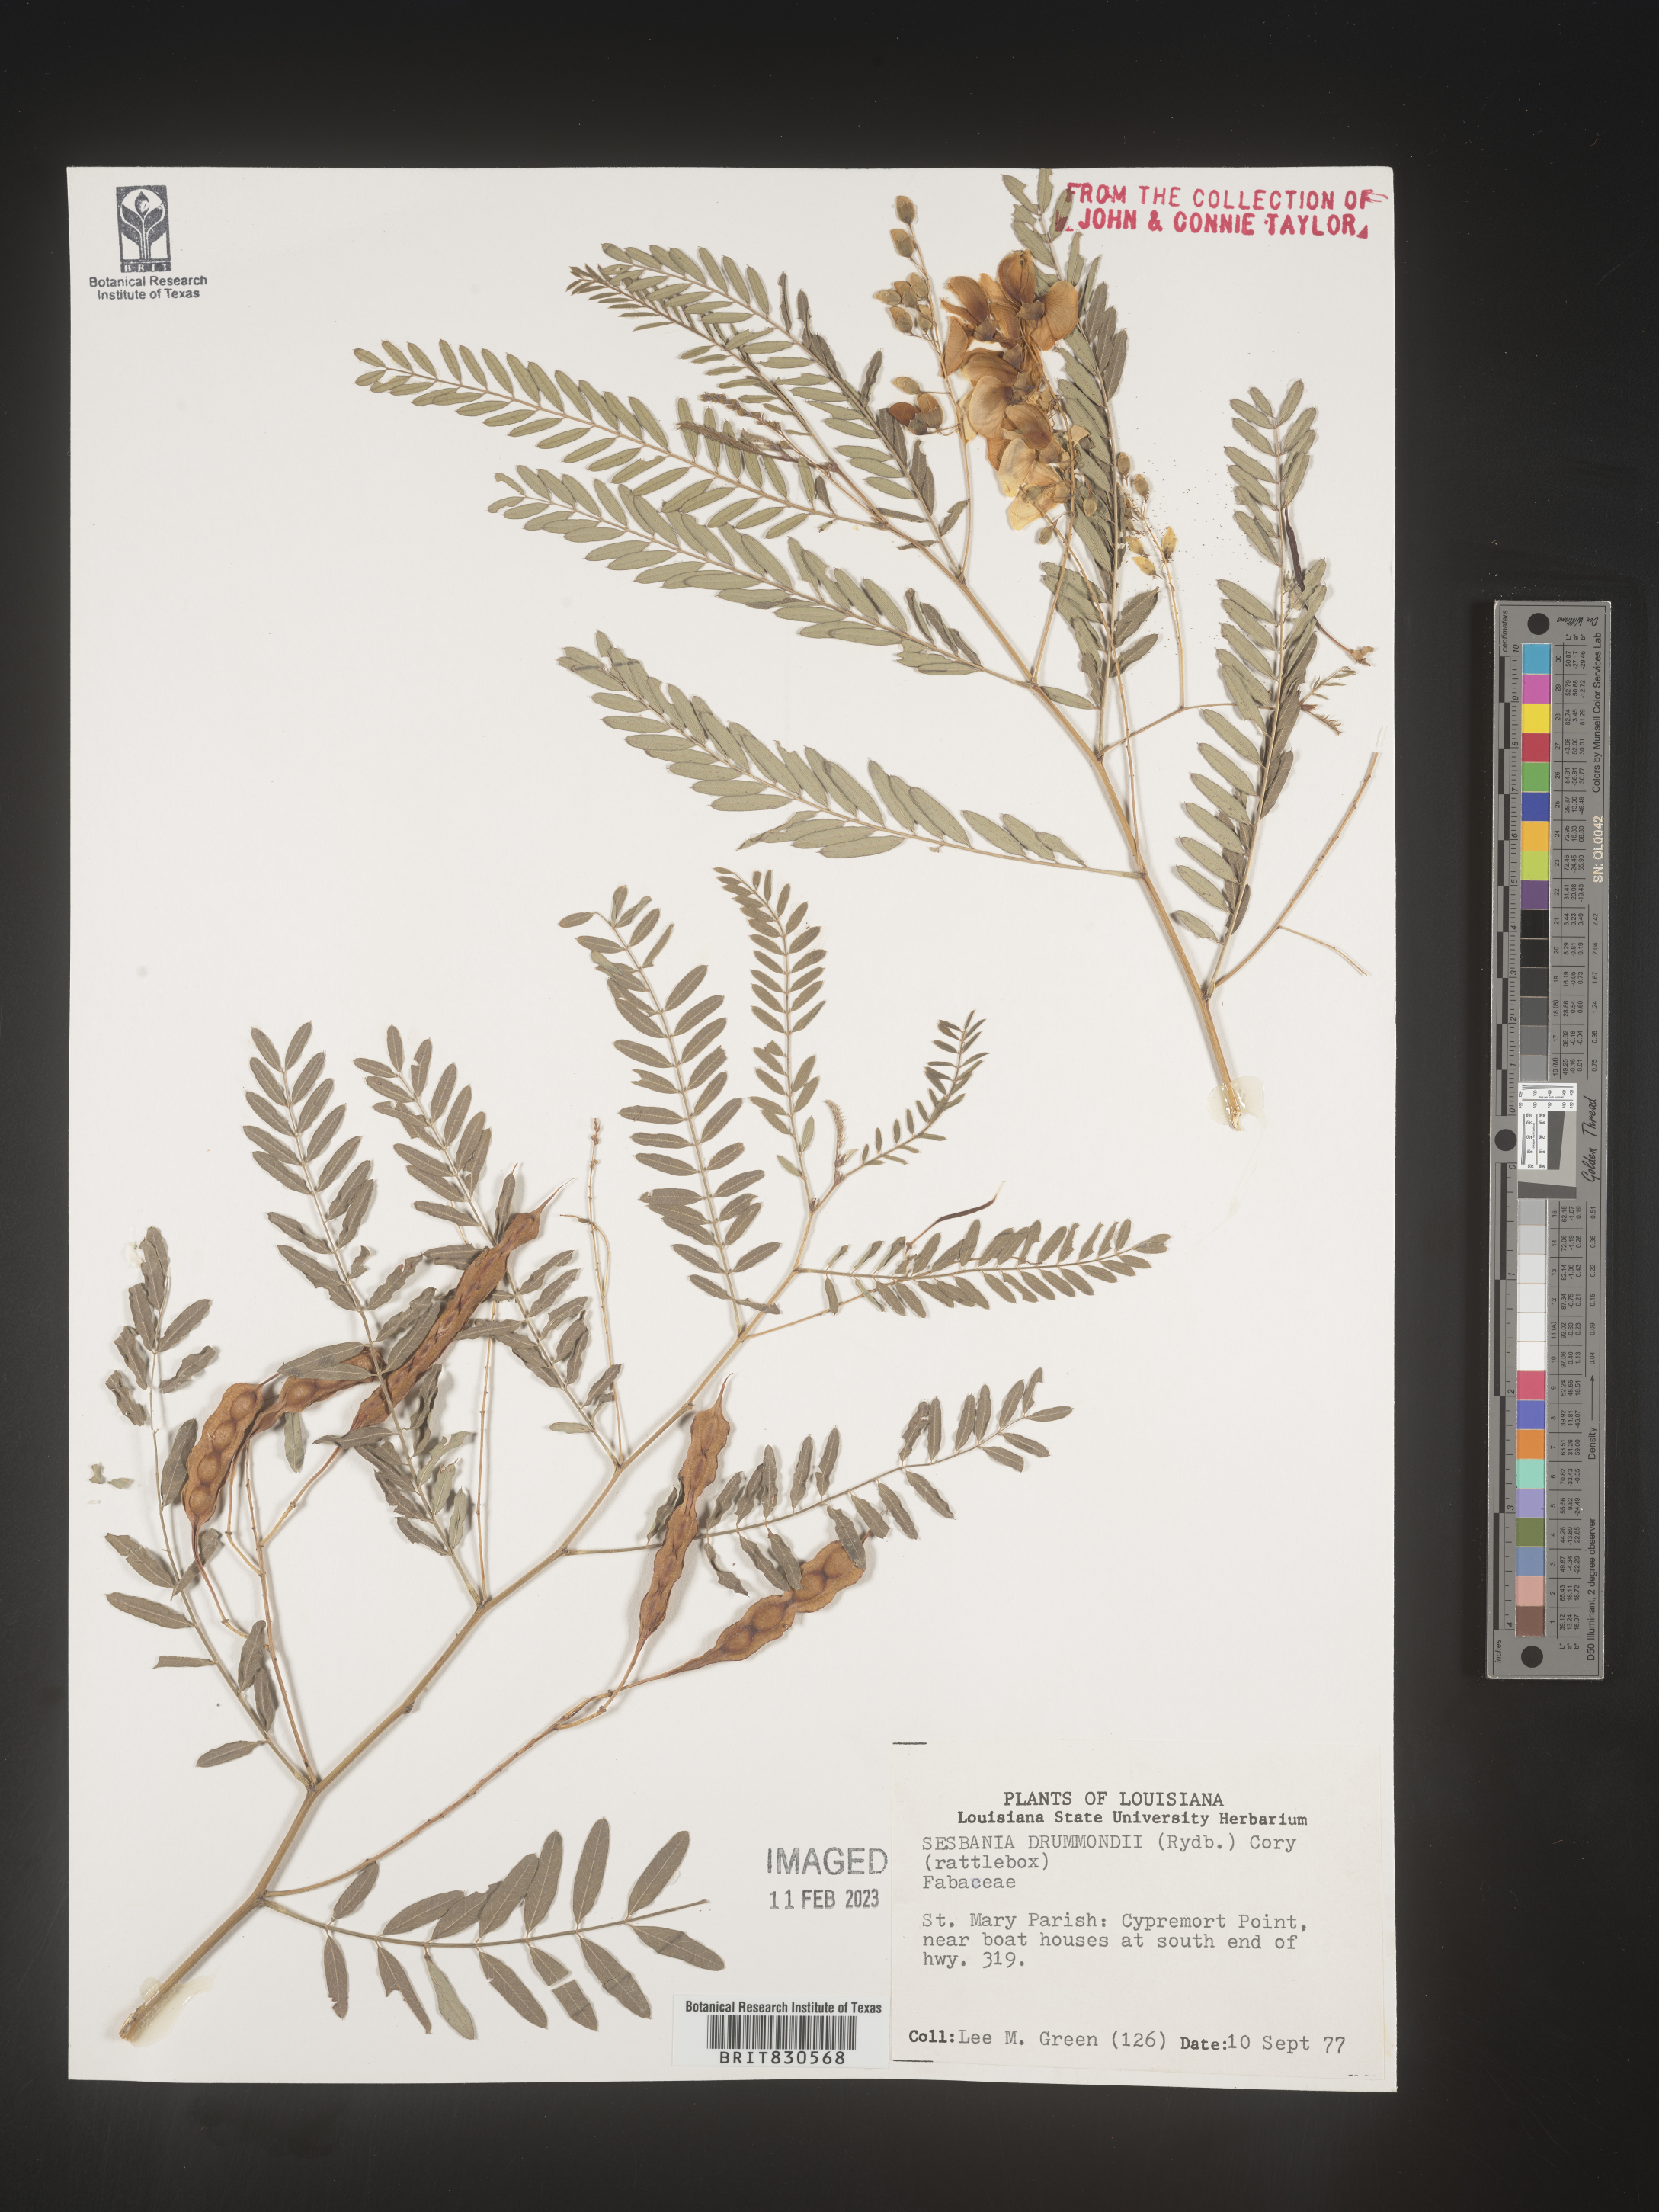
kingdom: Plantae
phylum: Tracheophyta
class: Magnoliopsida
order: Fabales
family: Fabaceae
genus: Sesbania
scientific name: Sesbania drummondii
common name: Poison-bean
